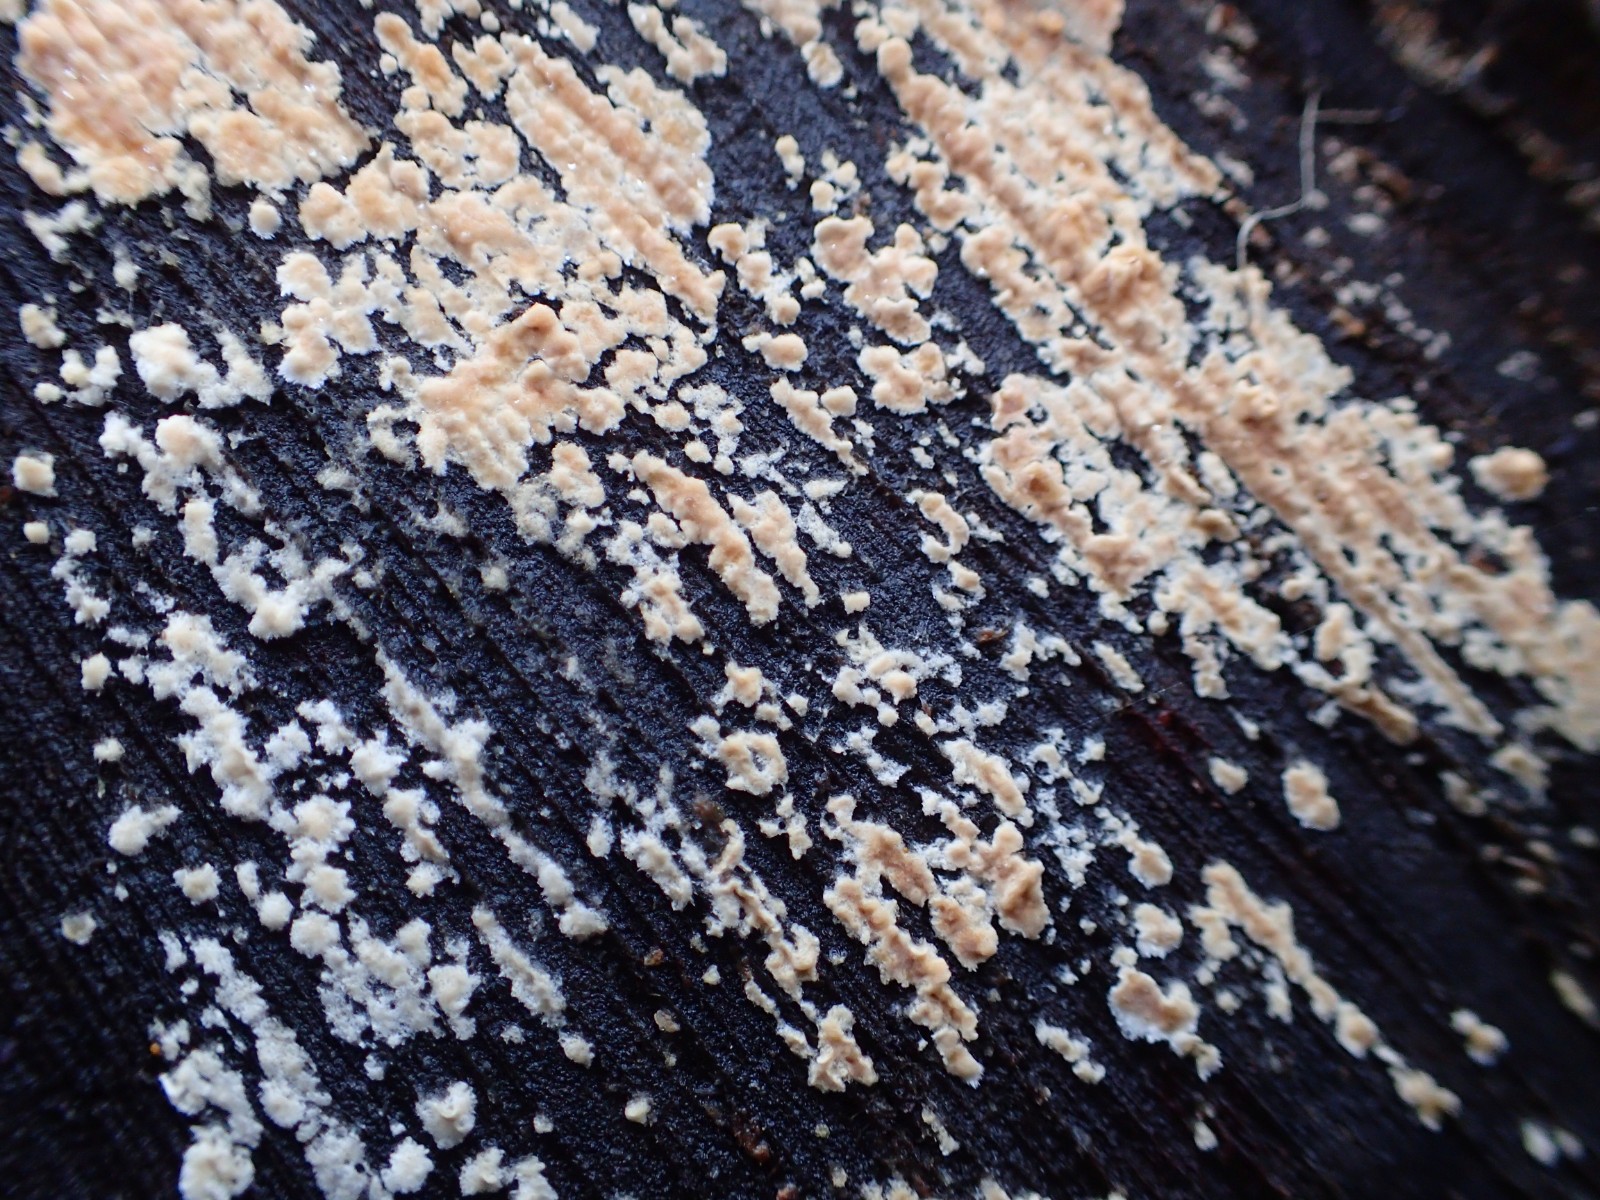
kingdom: Fungi
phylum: Basidiomycota
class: Agaricomycetes
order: Agaricales
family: Physalacriaceae
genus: Cylindrobasidium
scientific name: Cylindrobasidium evolvens
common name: sprækkehinde
